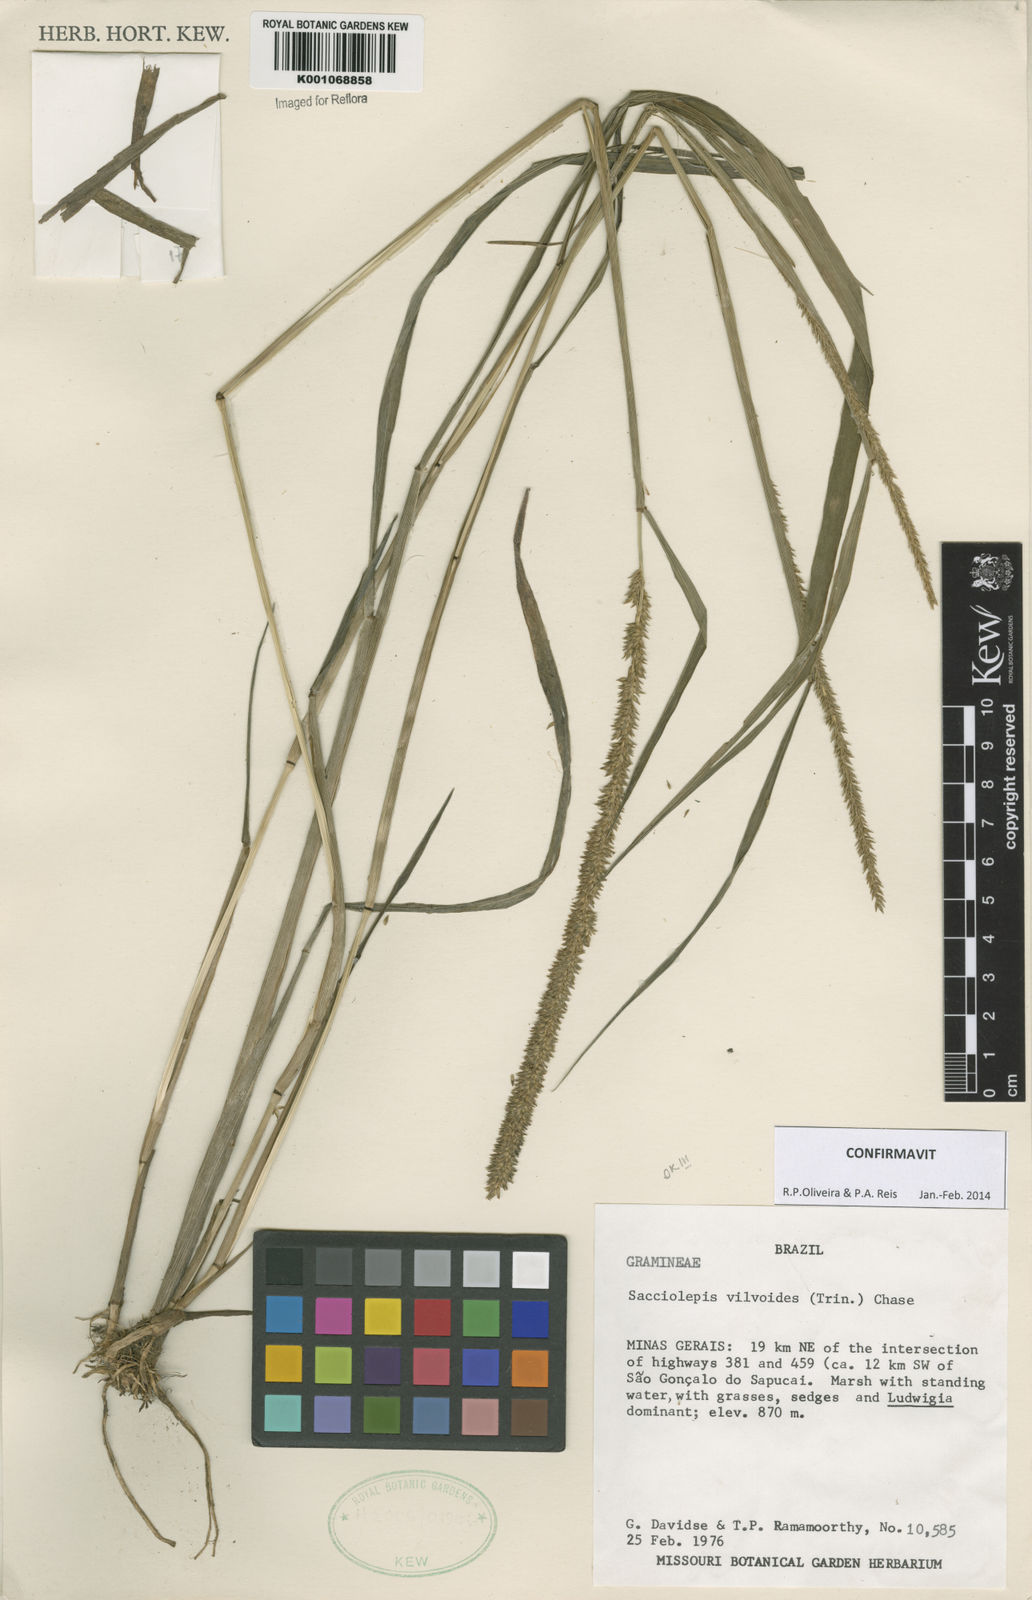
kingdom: Plantae
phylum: Tracheophyta
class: Liliopsida
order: Poales
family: Poaceae
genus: Sacciolepis
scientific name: Sacciolepis vilvoides
